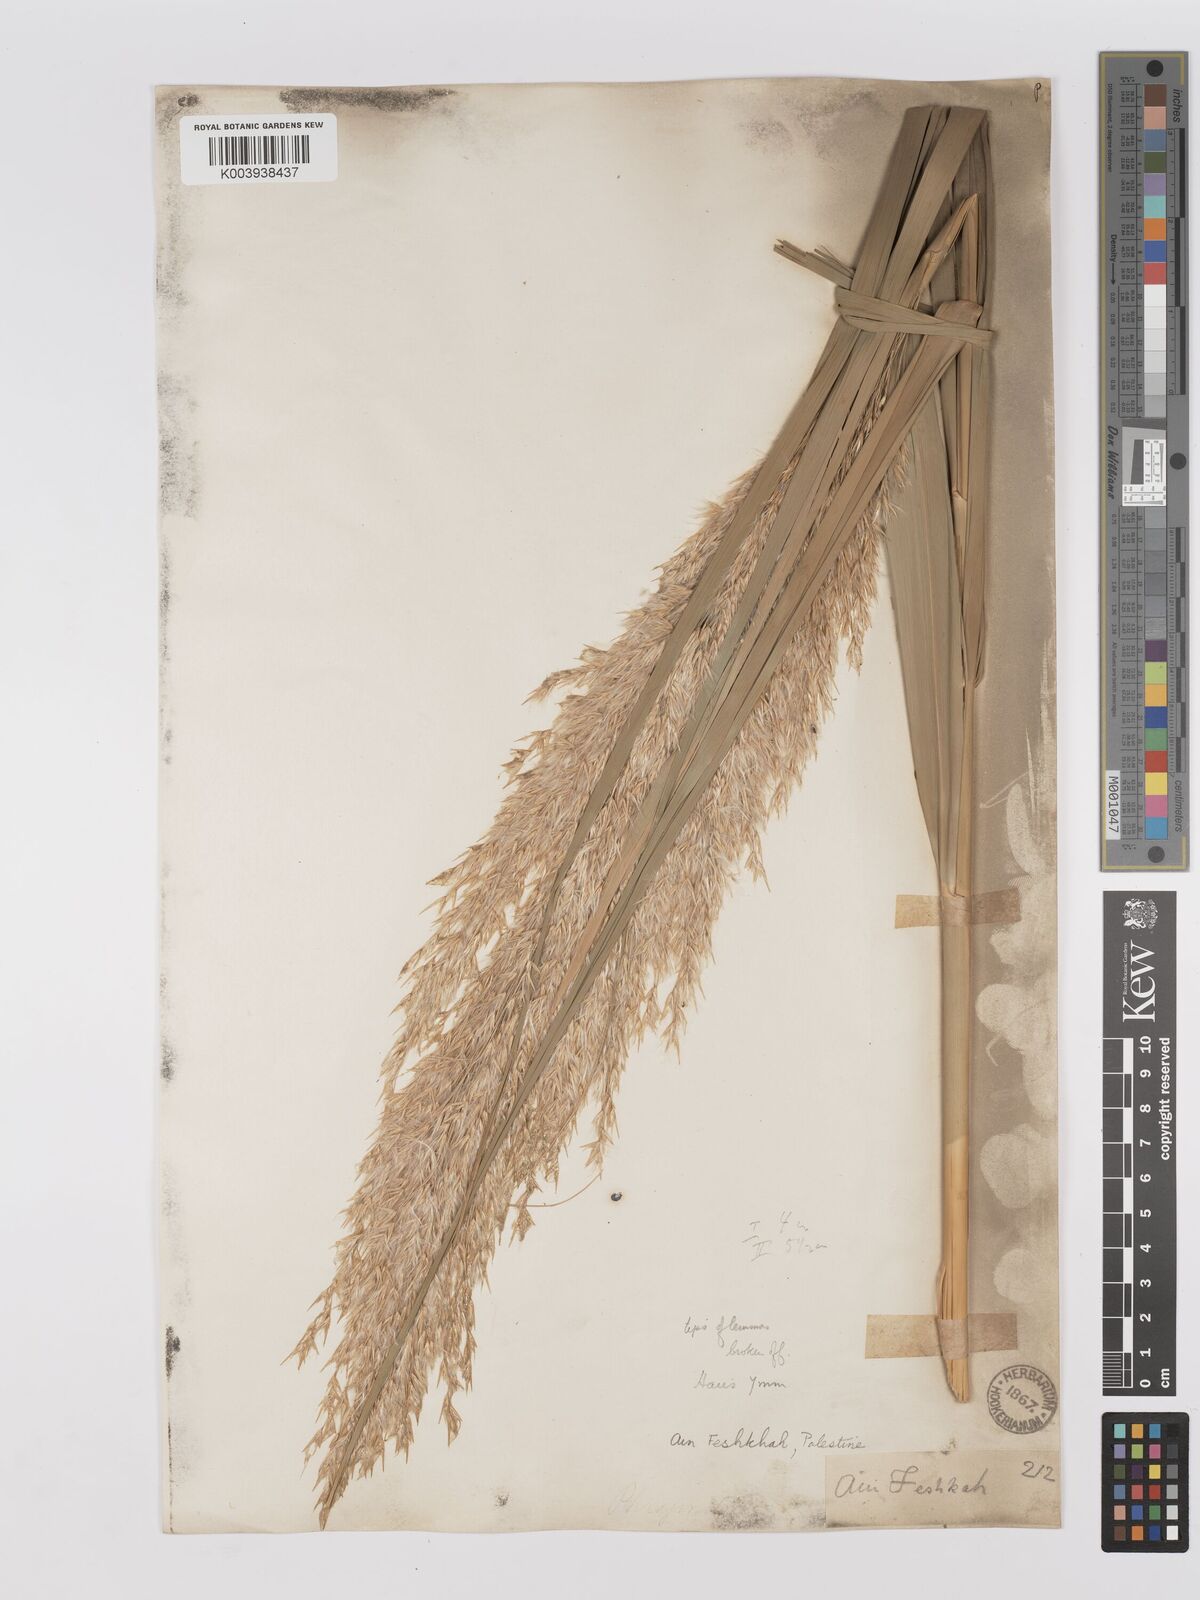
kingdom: Plantae
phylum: Tracheophyta
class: Liliopsida
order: Poales
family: Poaceae
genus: Phragmites
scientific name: Phragmites australis
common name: Common reed
